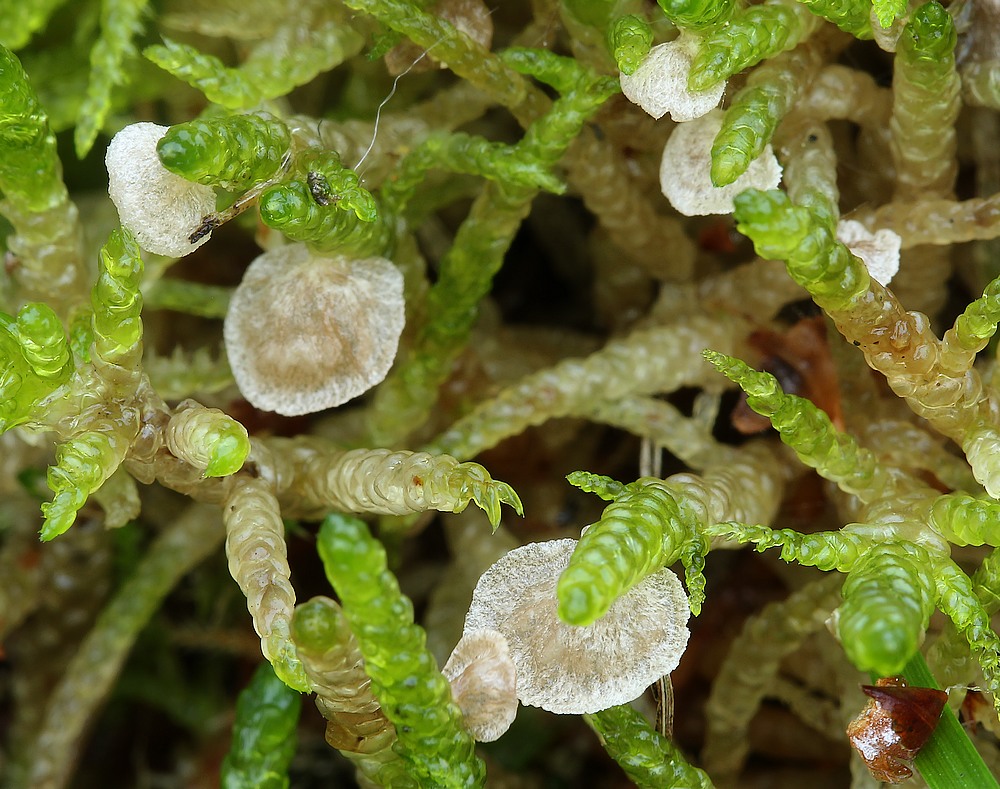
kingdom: Fungi
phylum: Basidiomycota
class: Agaricomycetes
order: Agaricales
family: Hygrophoraceae
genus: Arrhenia
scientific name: Arrhenia retiruga
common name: lille fontænehat
